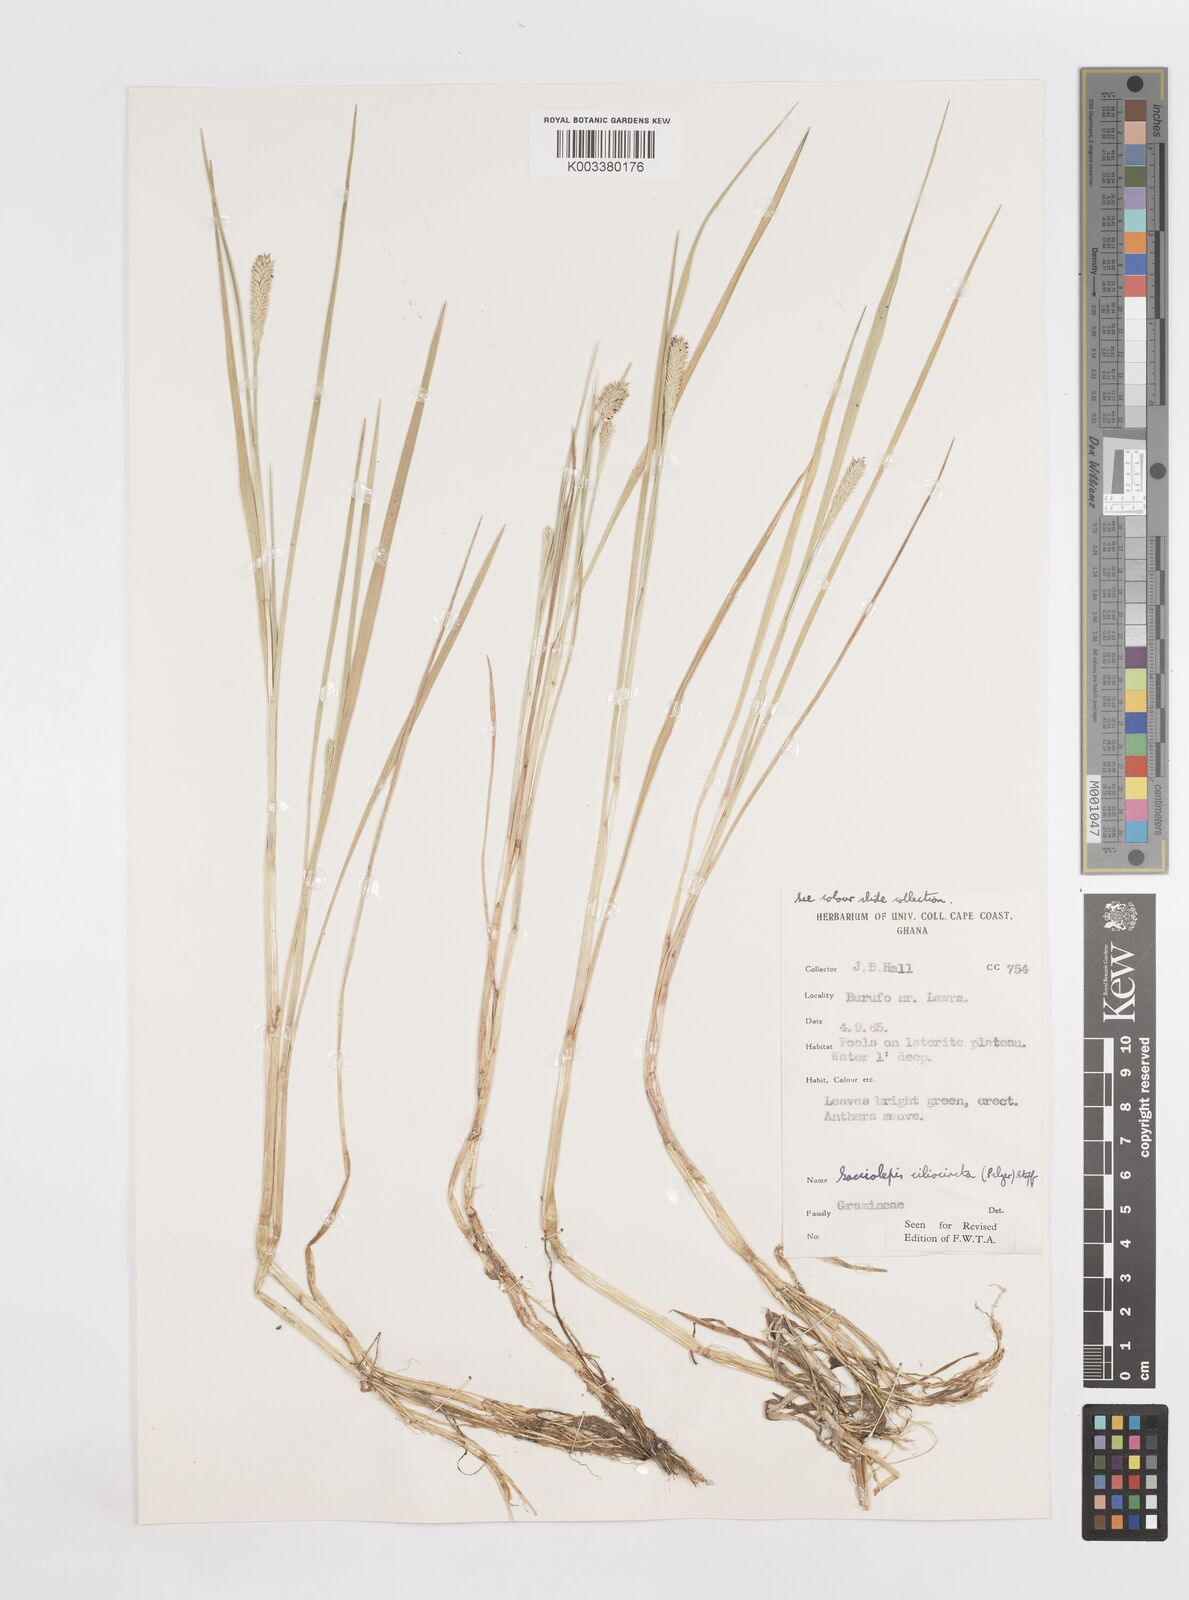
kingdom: Plantae
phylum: Tracheophyta
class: Liliopsida
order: Poales
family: Poaceae
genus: Sacciolepis
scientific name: Sacciolepis ciliocincta
